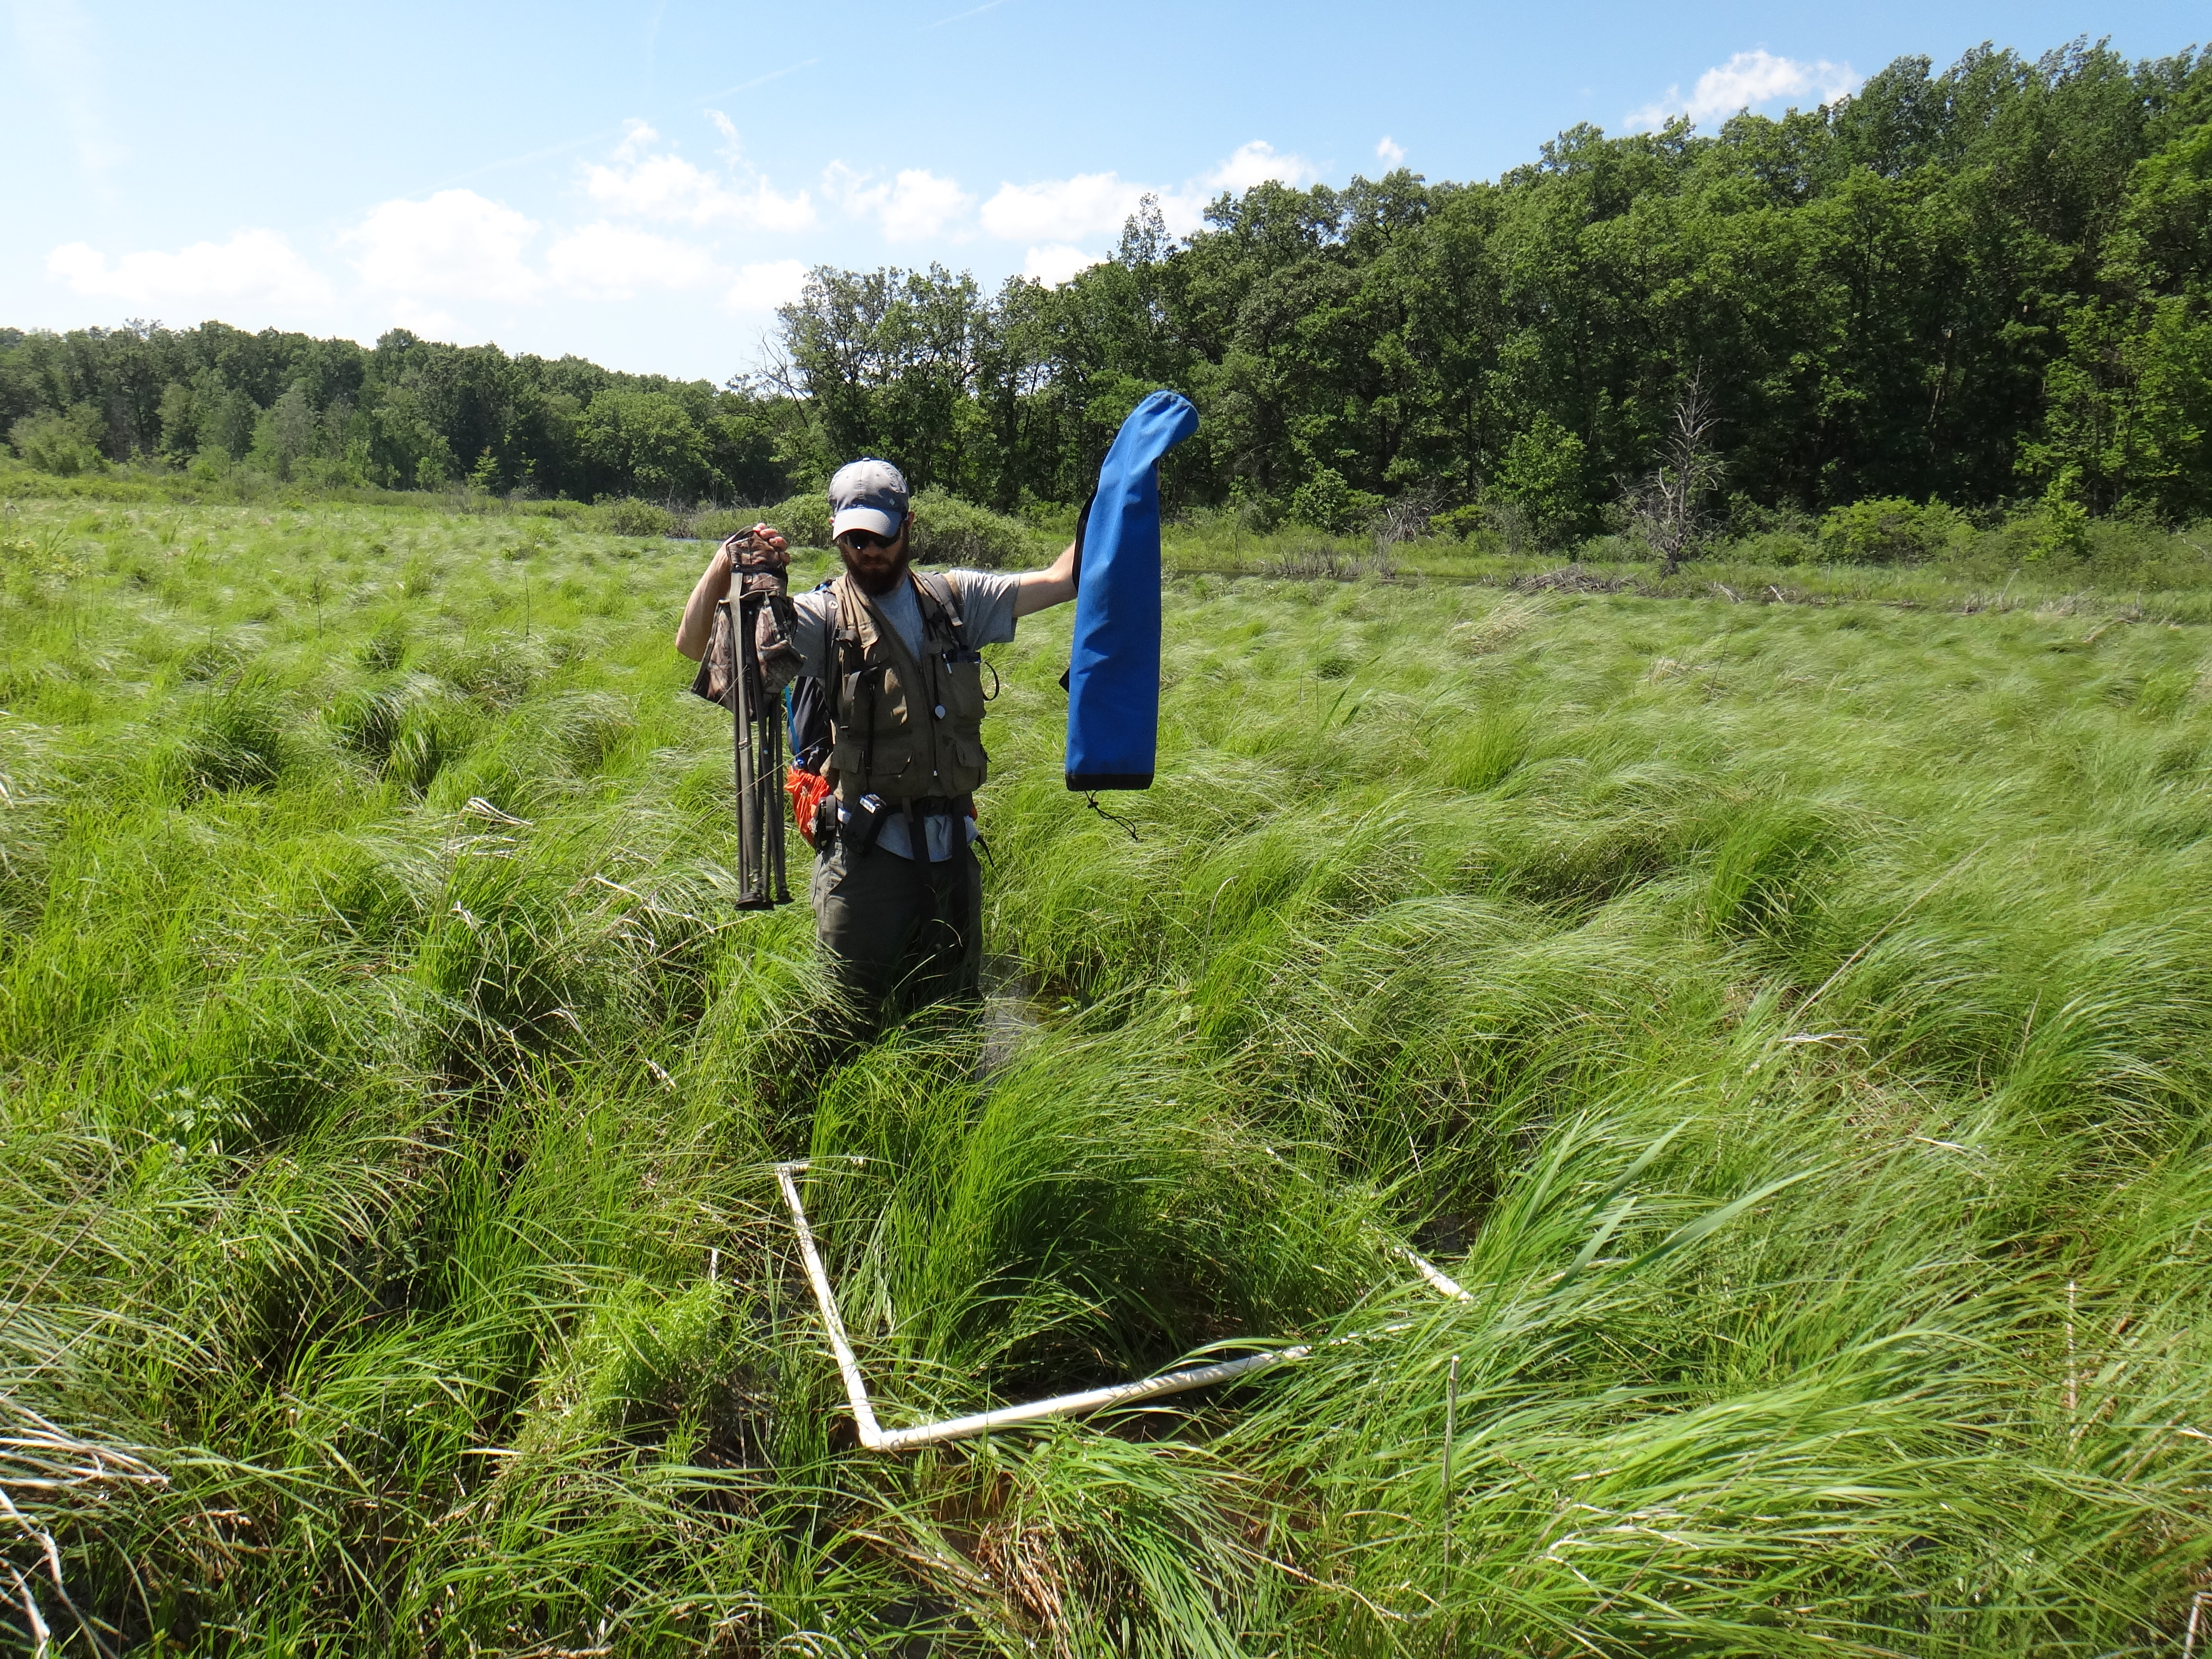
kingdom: Plantae
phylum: Tracheophyta
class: Magnoliopsida
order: Caryophyllales
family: Polygonaceae
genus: Rumex
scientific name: Rumex orbiculatus
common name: Greater water dock
